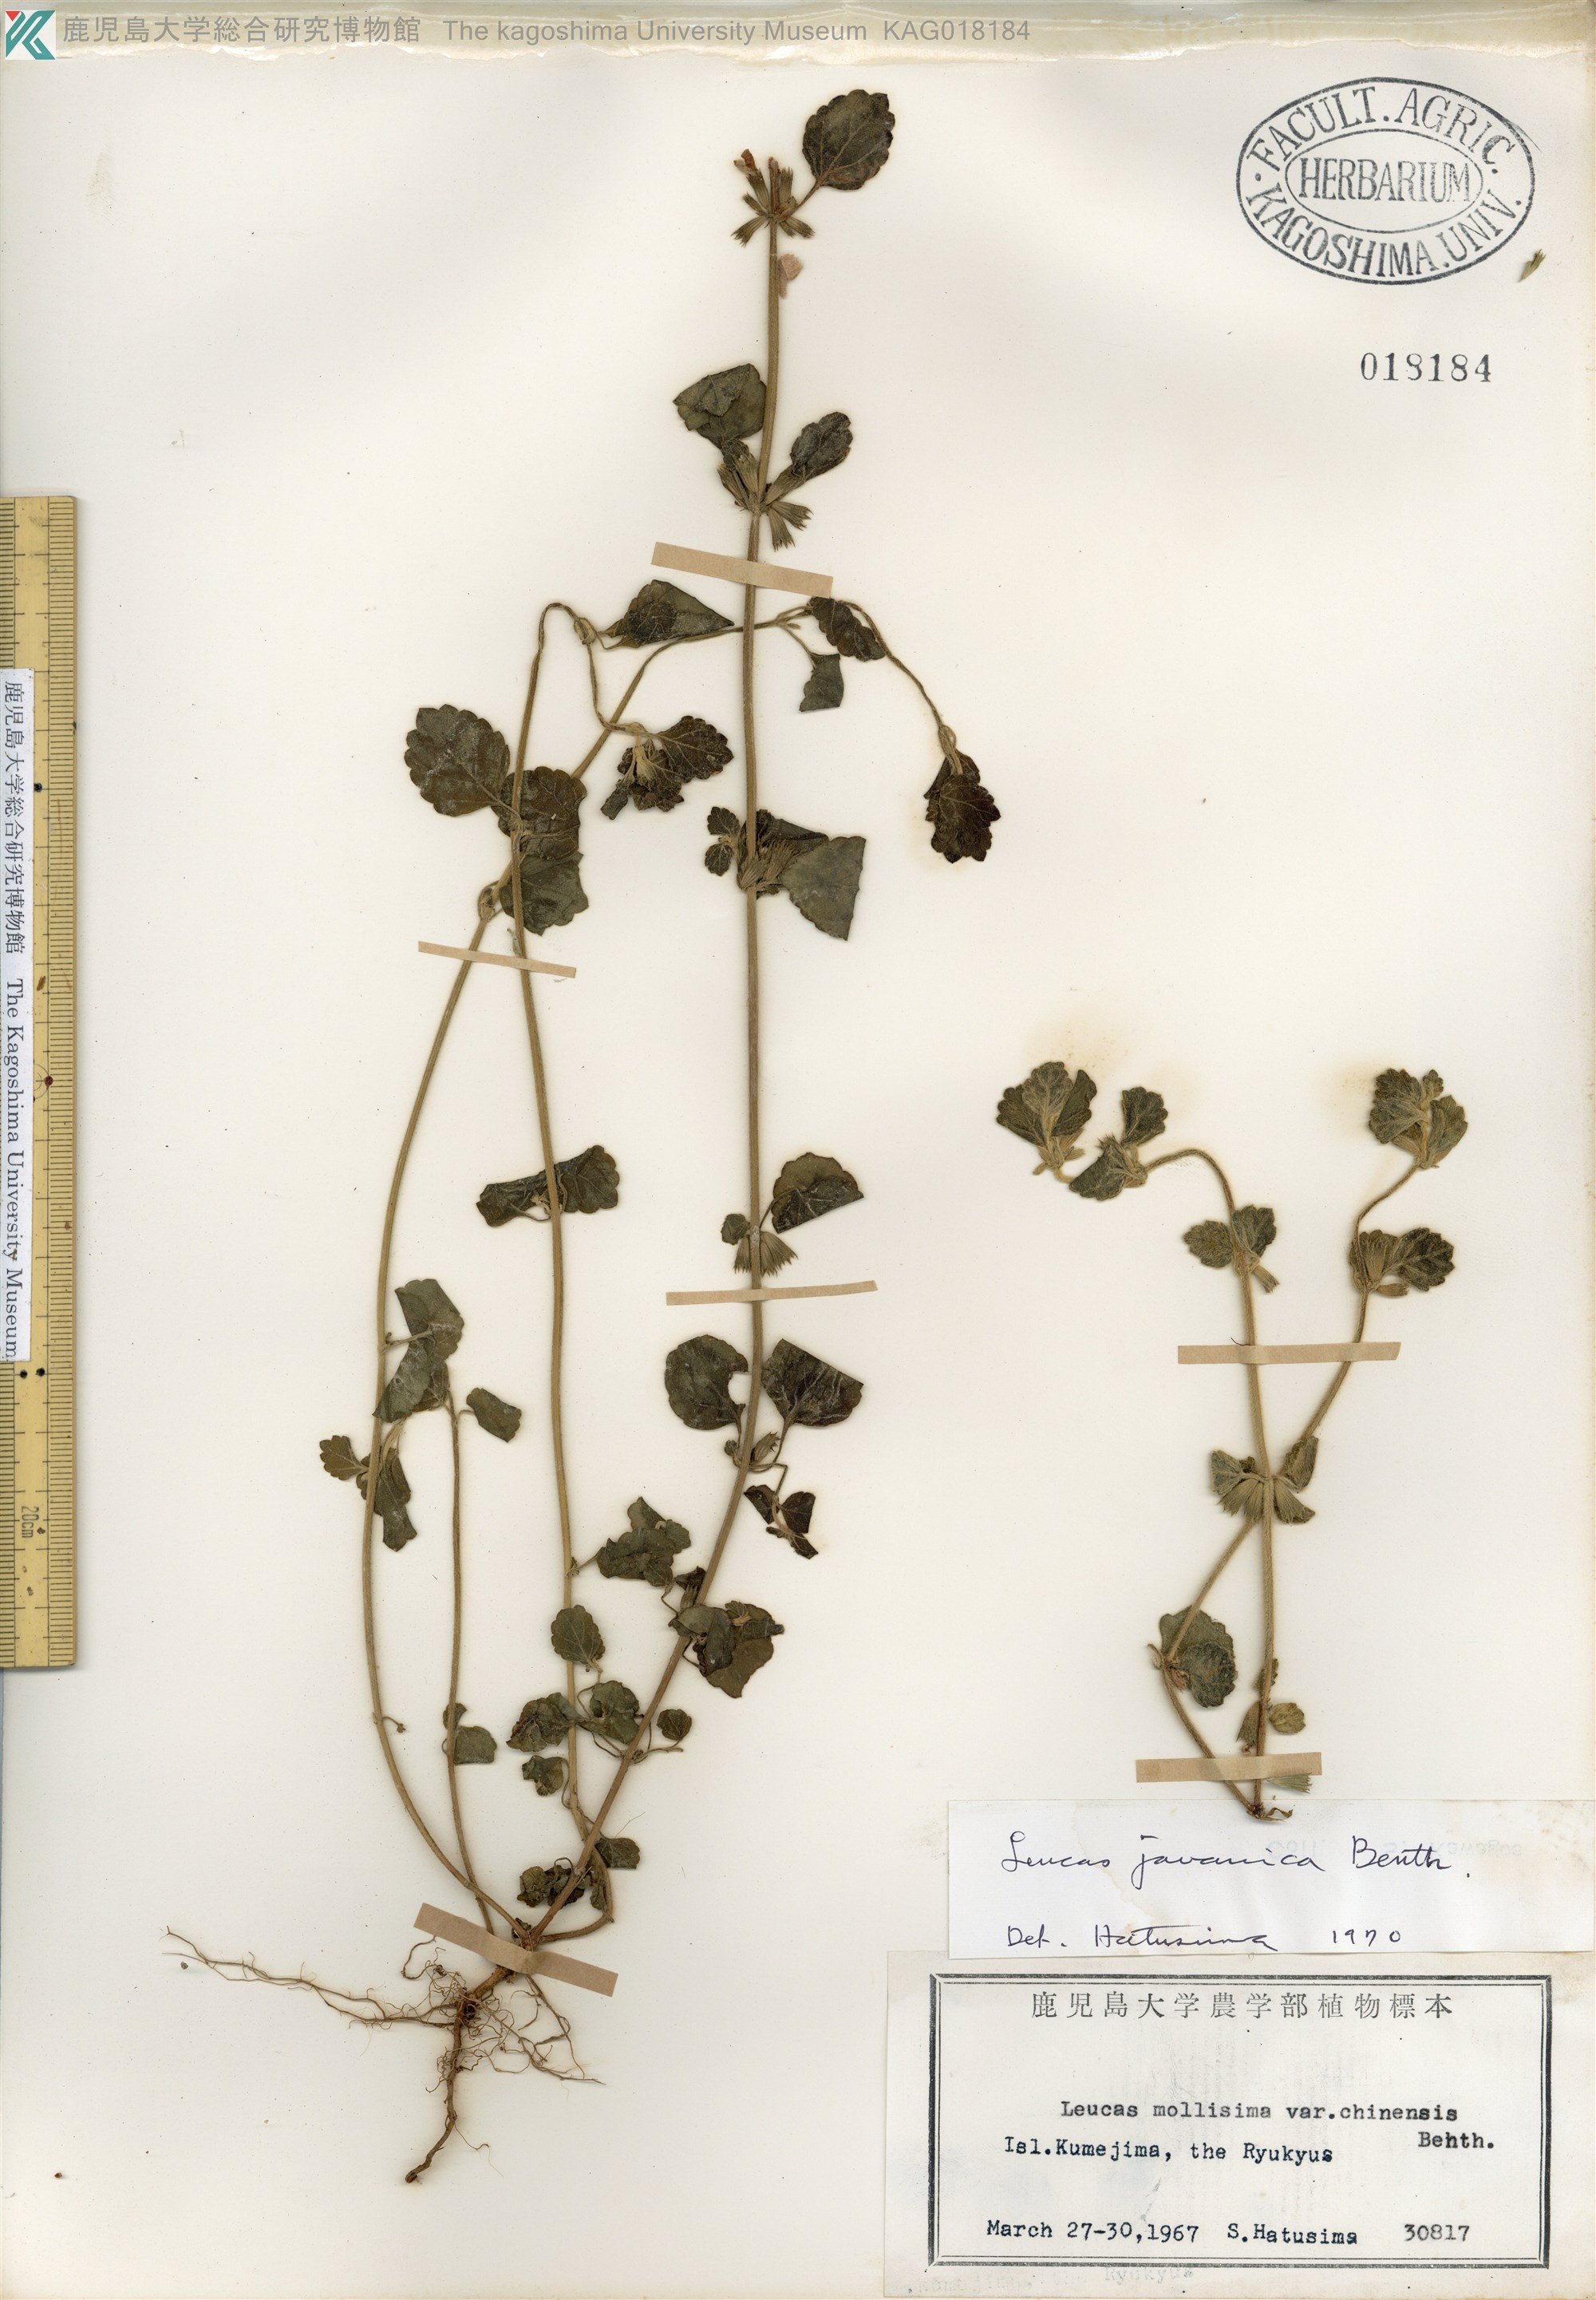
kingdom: Plantae
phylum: Tracheophyta
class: Magnoliopsida
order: Lamiales
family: Lamiaceae
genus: Leucas
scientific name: Leucas chinensis
